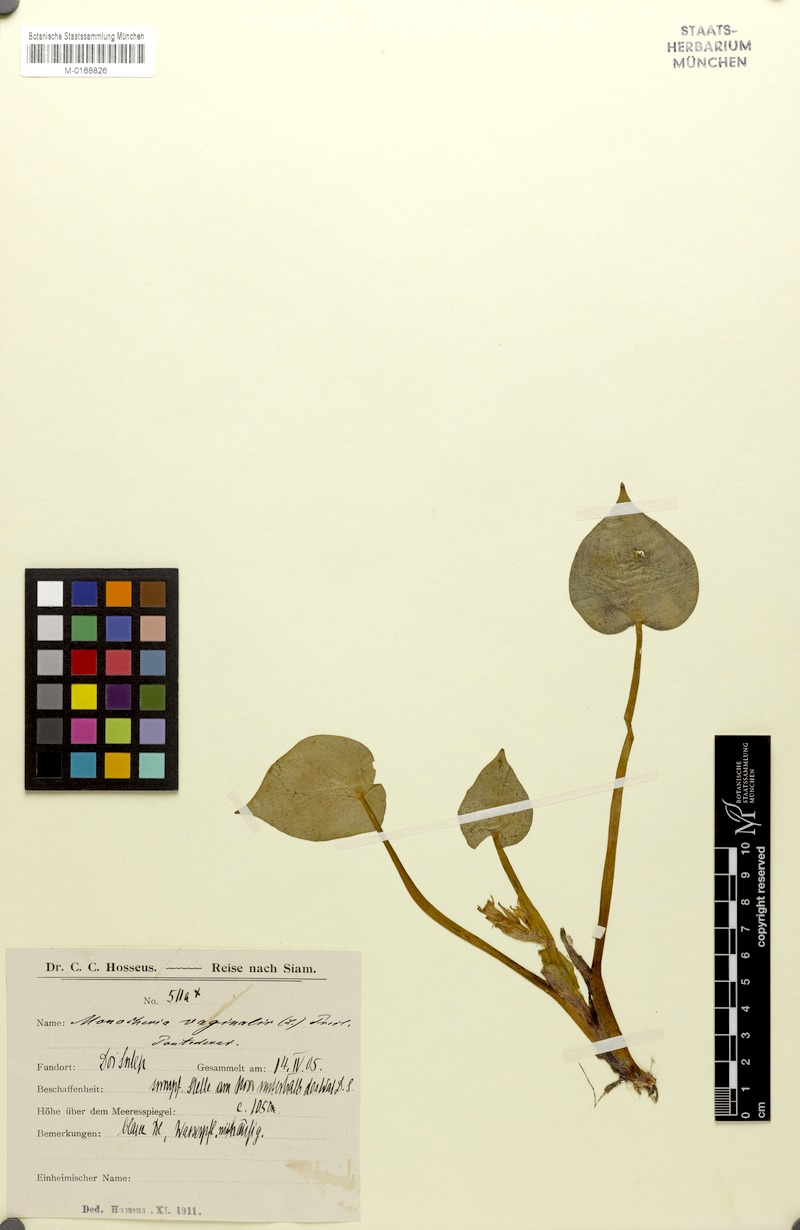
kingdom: Plantae
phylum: Tracheophyta
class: Liliopsida
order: Commelinales
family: Pontederiaceae
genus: Pontederia
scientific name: Pontederia vaginalis
